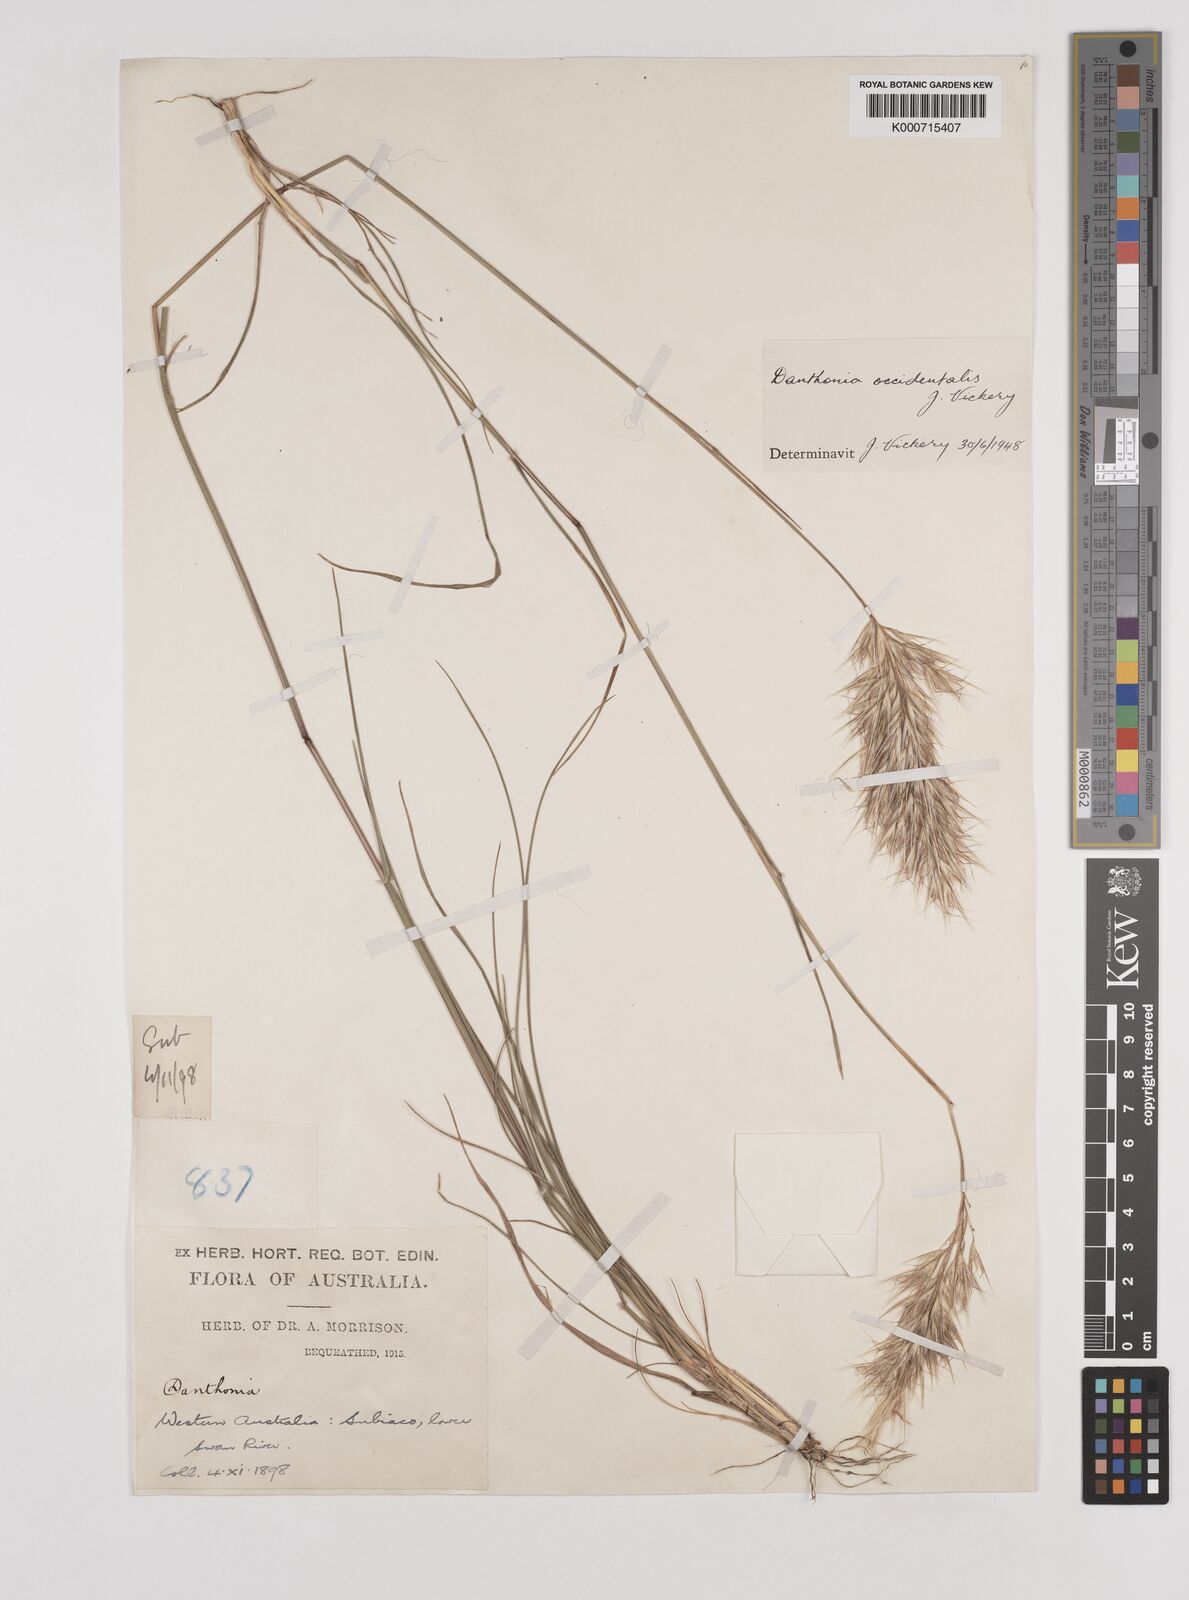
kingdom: Plantae
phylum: Tracheophyta
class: Liliopsida
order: Poales
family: Poaceae
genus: Rytidosperma
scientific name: Rytidosperma occidentale
